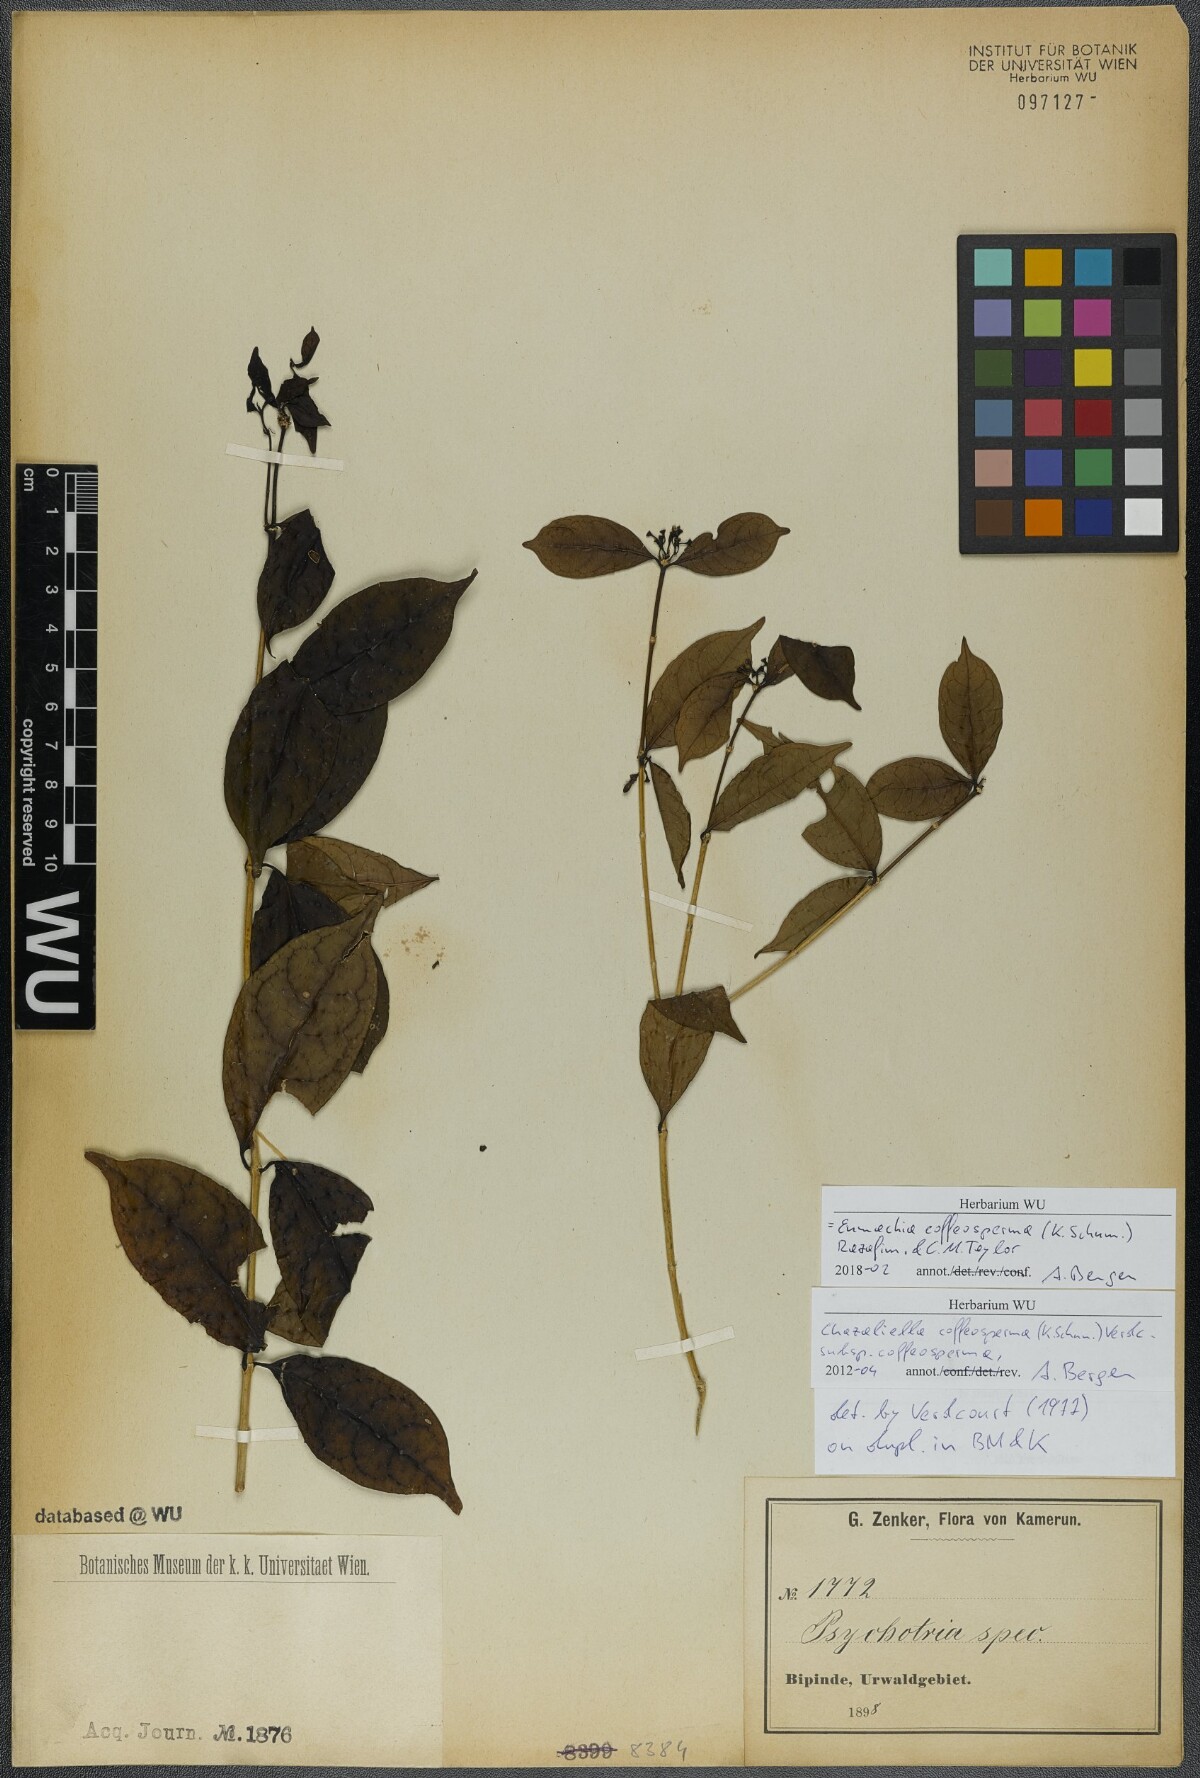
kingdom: Plantae
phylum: Tracheophyta
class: Magnoliopsida
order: Gentianales
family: Rubiaceae
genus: Eumachia
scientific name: Eumachia coffeosperma
